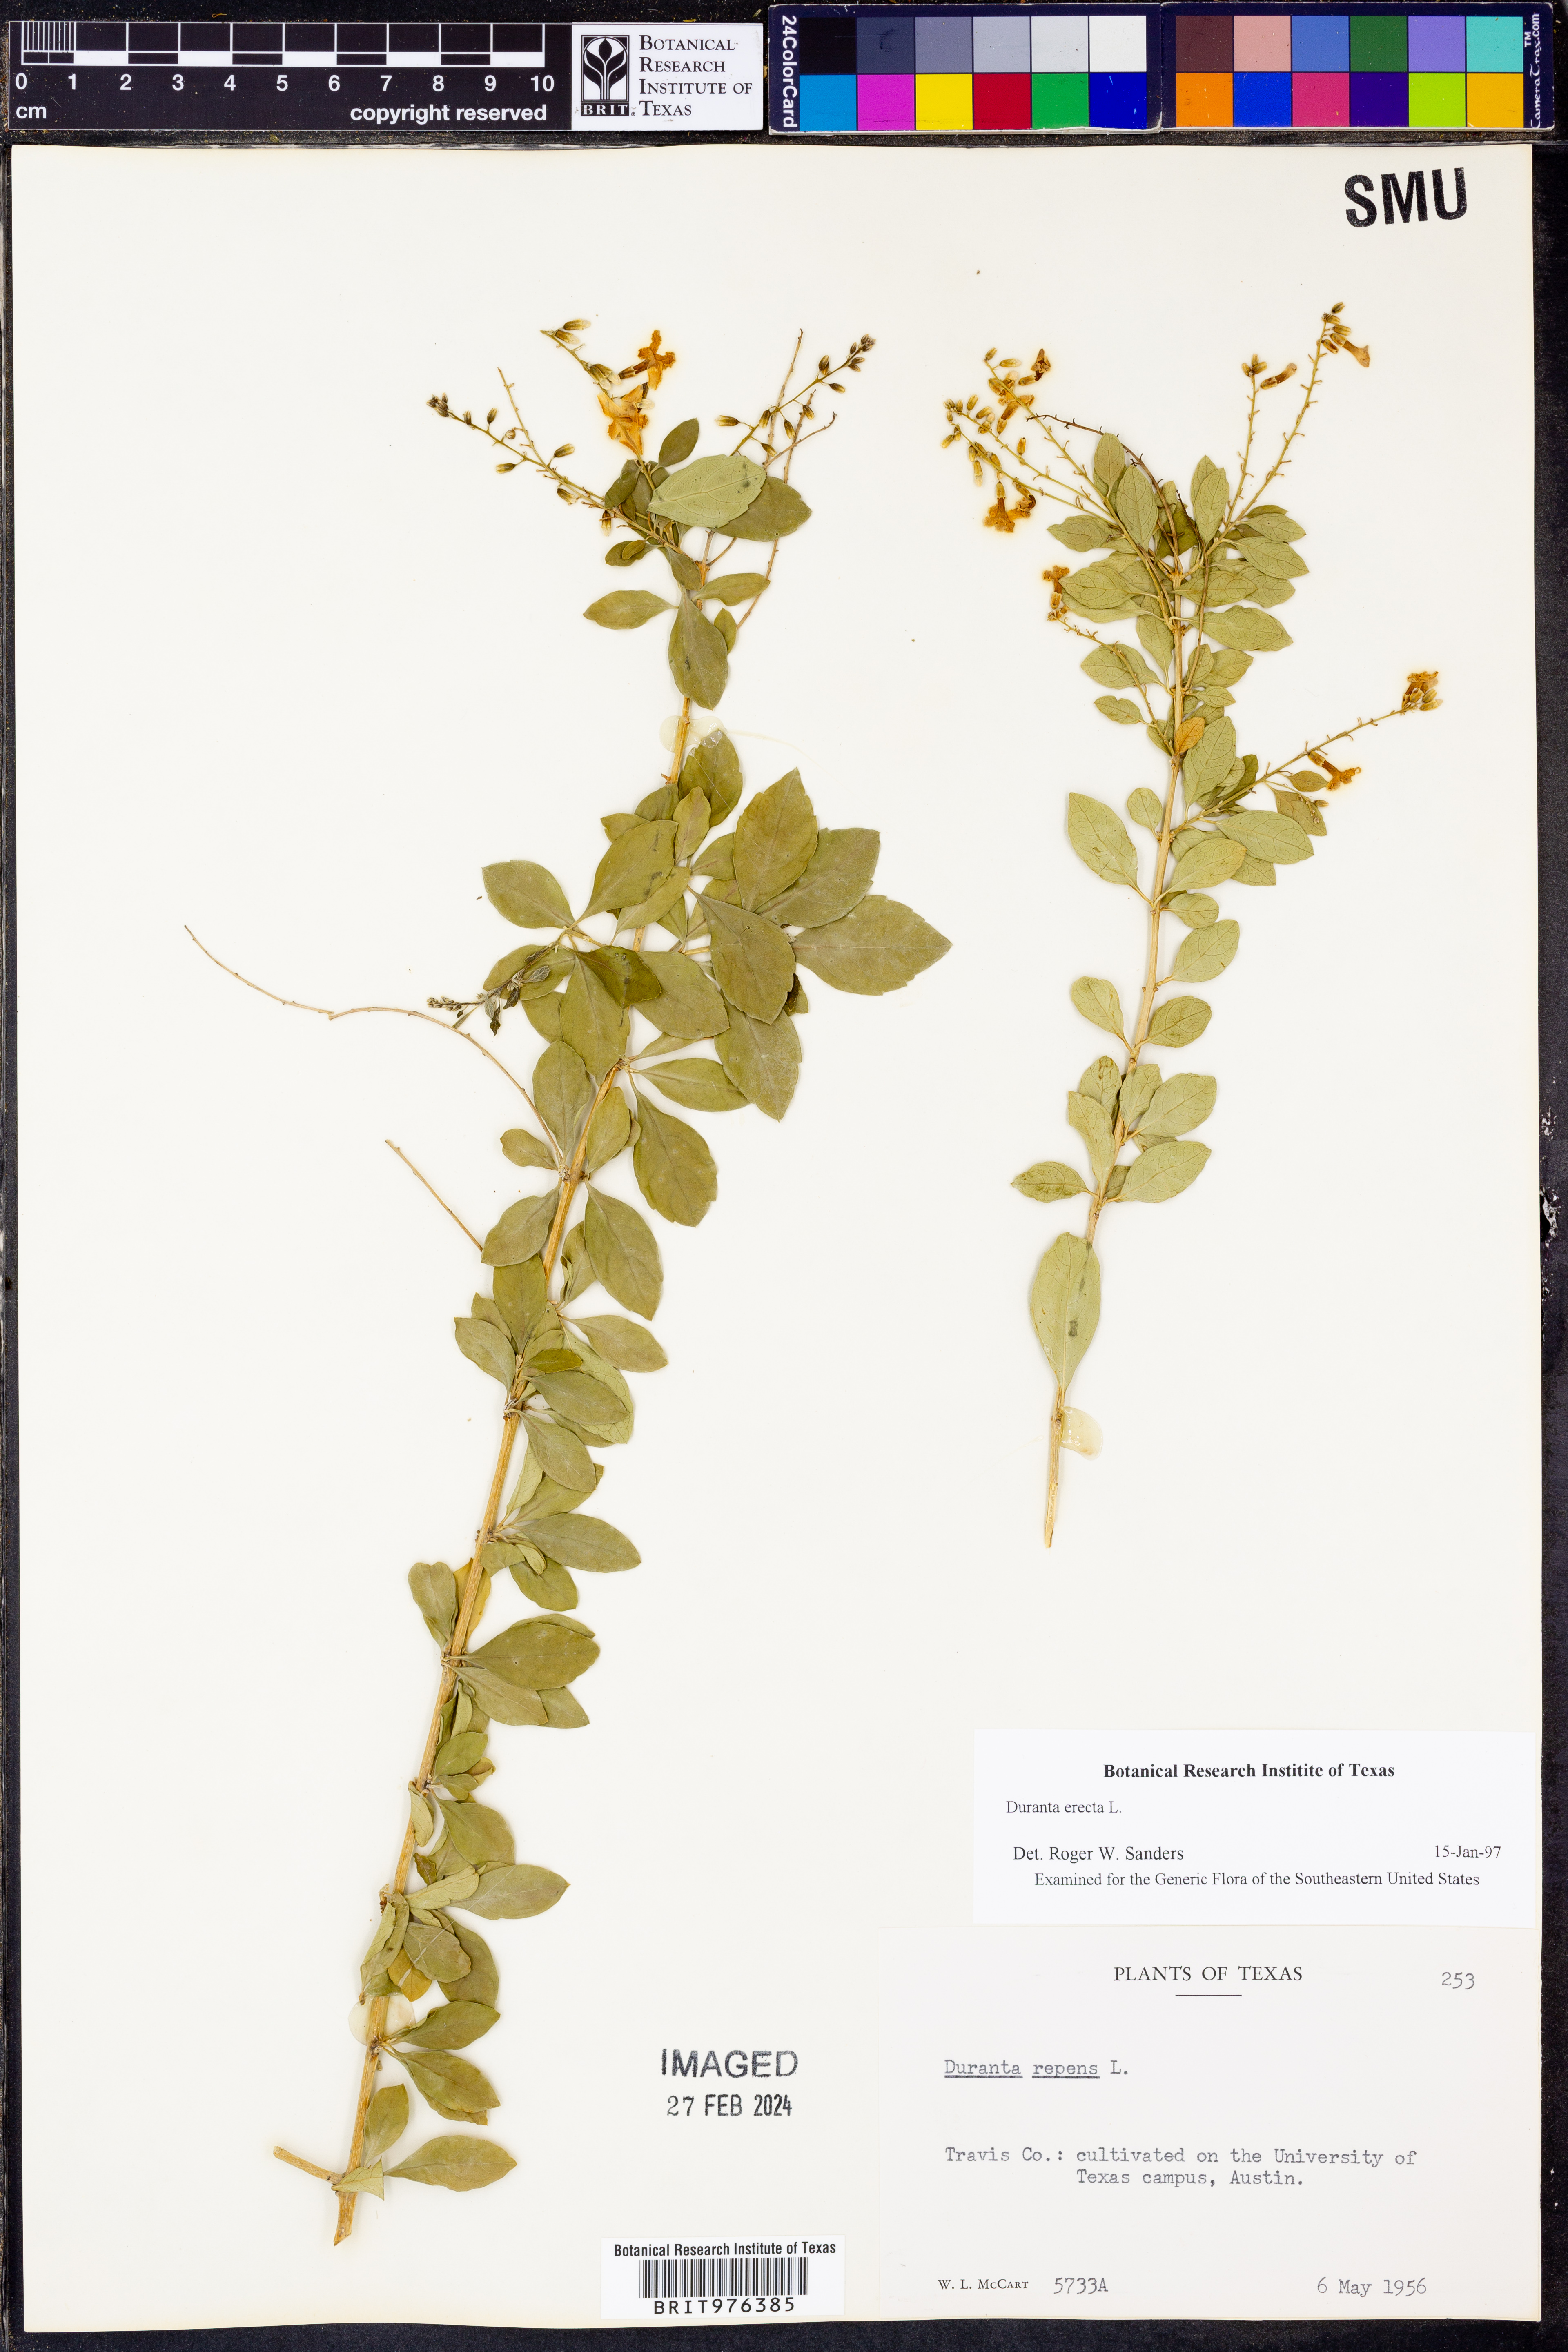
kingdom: Plantae
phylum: Tracheophyta
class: Magnoliopsida
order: Lamiales
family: Verbenaceae
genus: Duranta
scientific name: Duranta
